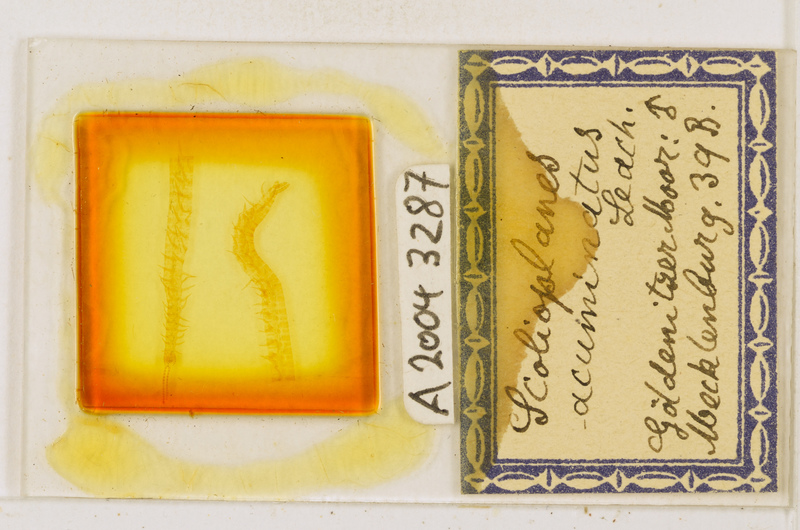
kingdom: Animalia
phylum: Arthropoda
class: Chilopoda
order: Geophilomorpha
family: Linotaeniidae
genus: Strigamia
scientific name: Strigamia acuminata
